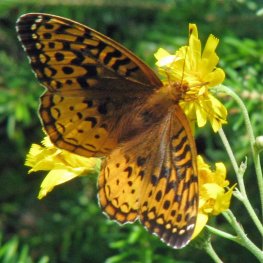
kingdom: Animalia
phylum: Arthropoda
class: Insecta
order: Lepidoptera
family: Nymphalidae
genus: Speyeria
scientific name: Speyeria cybele
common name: Great Spangled Fritillary
